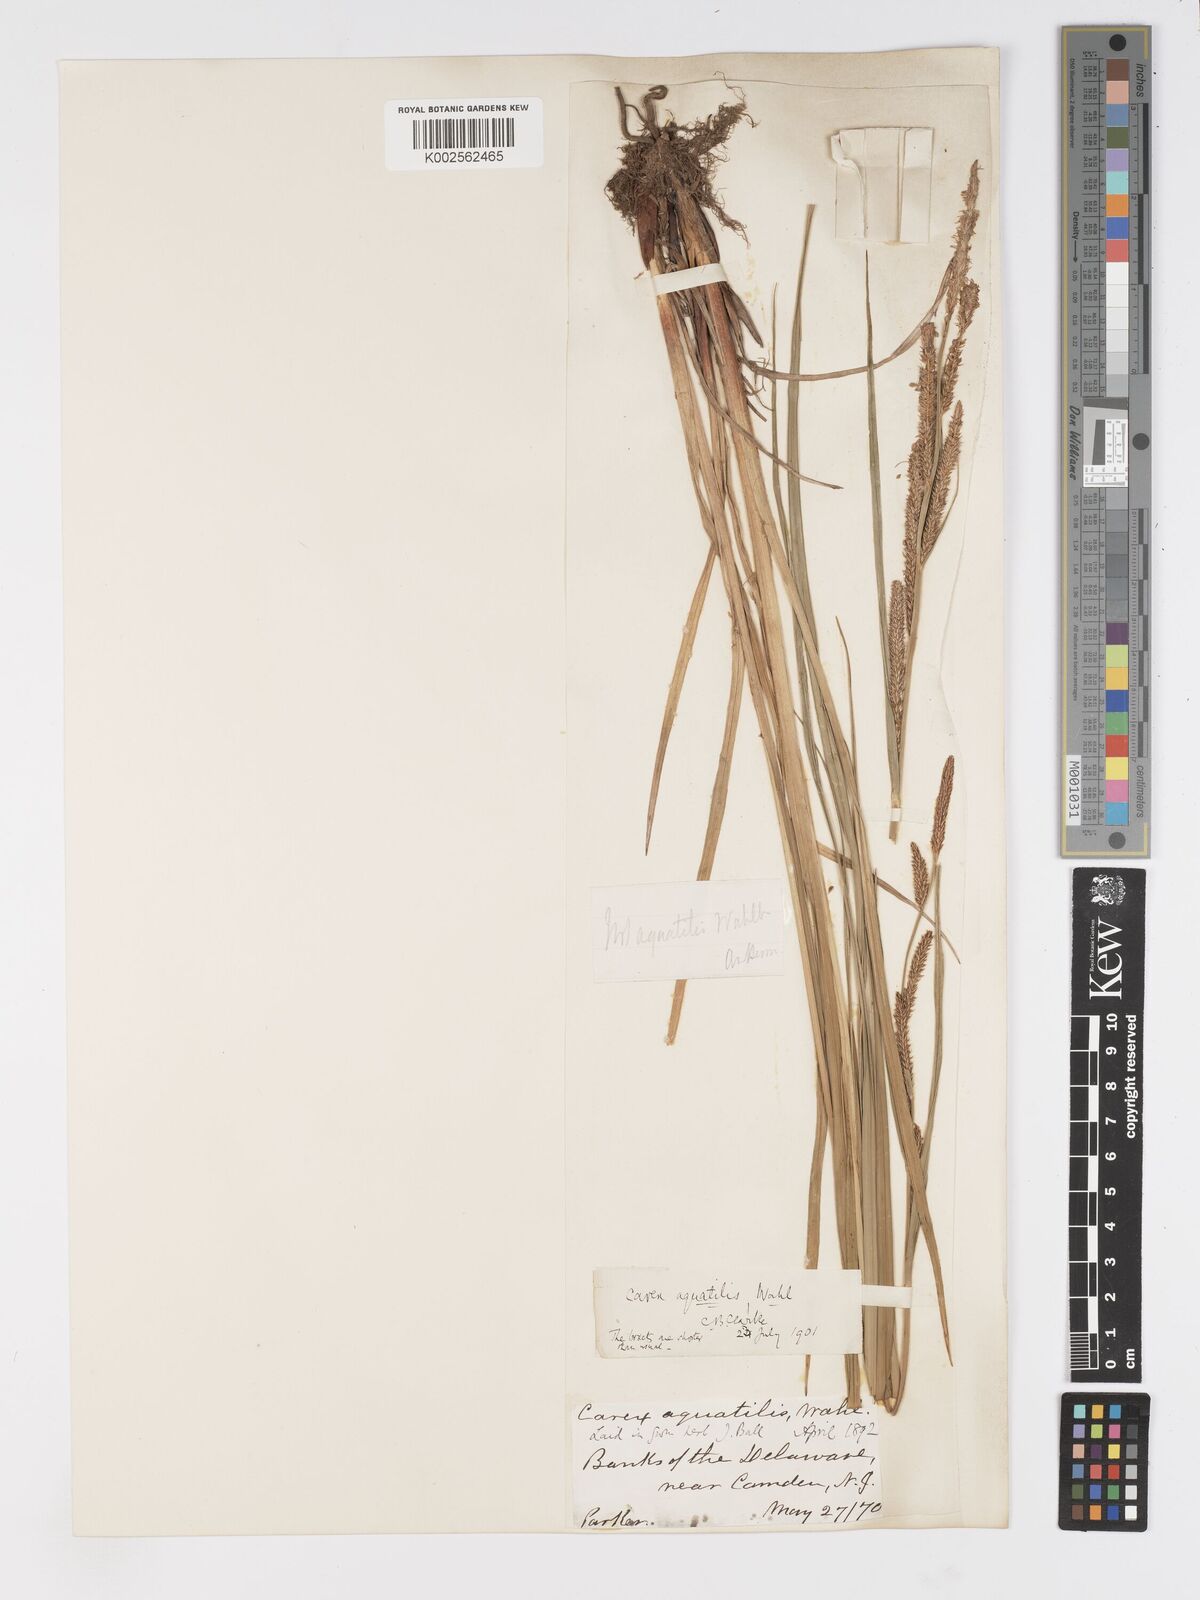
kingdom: Plantae
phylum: Tracheophyta
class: Liliopsida
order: Poales
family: Cyperaceae
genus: Carex
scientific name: Carex
